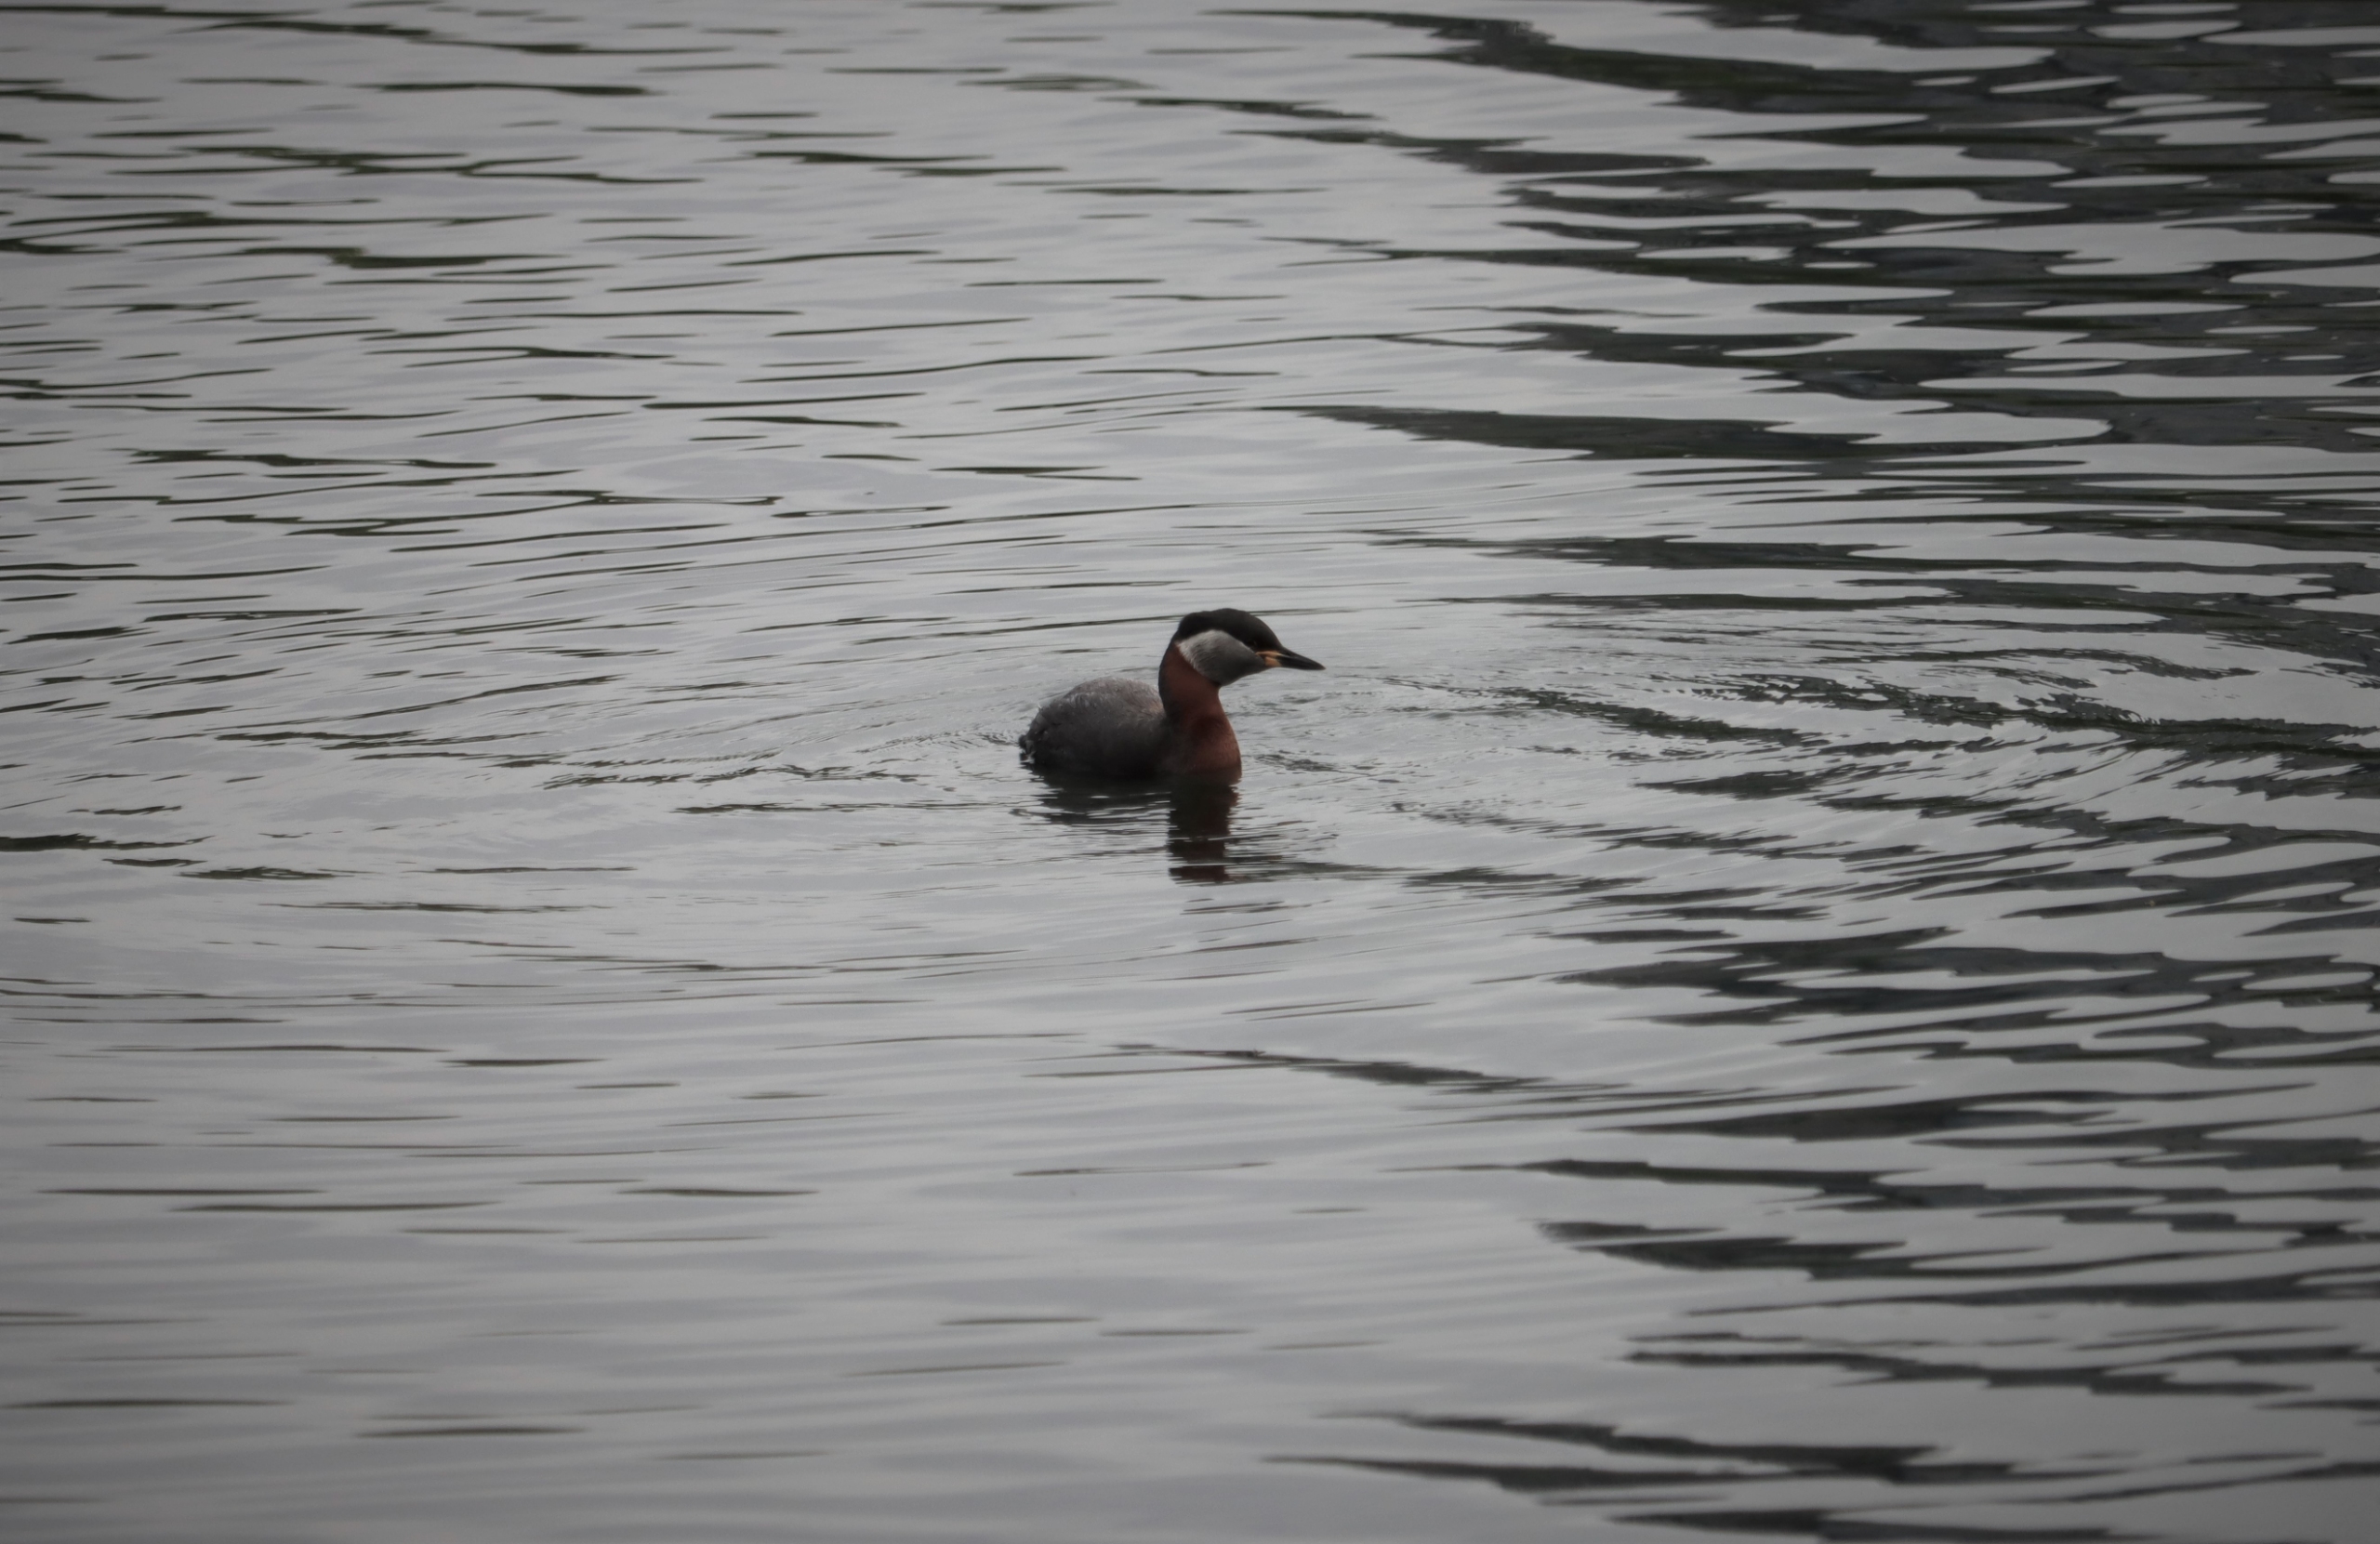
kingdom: Animalia
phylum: Chordata
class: Aves
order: Podicipediformes
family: Podicipedidae
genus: Podiceps
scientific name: Podiceps grisegena
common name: Gråstrubet lappedykker
